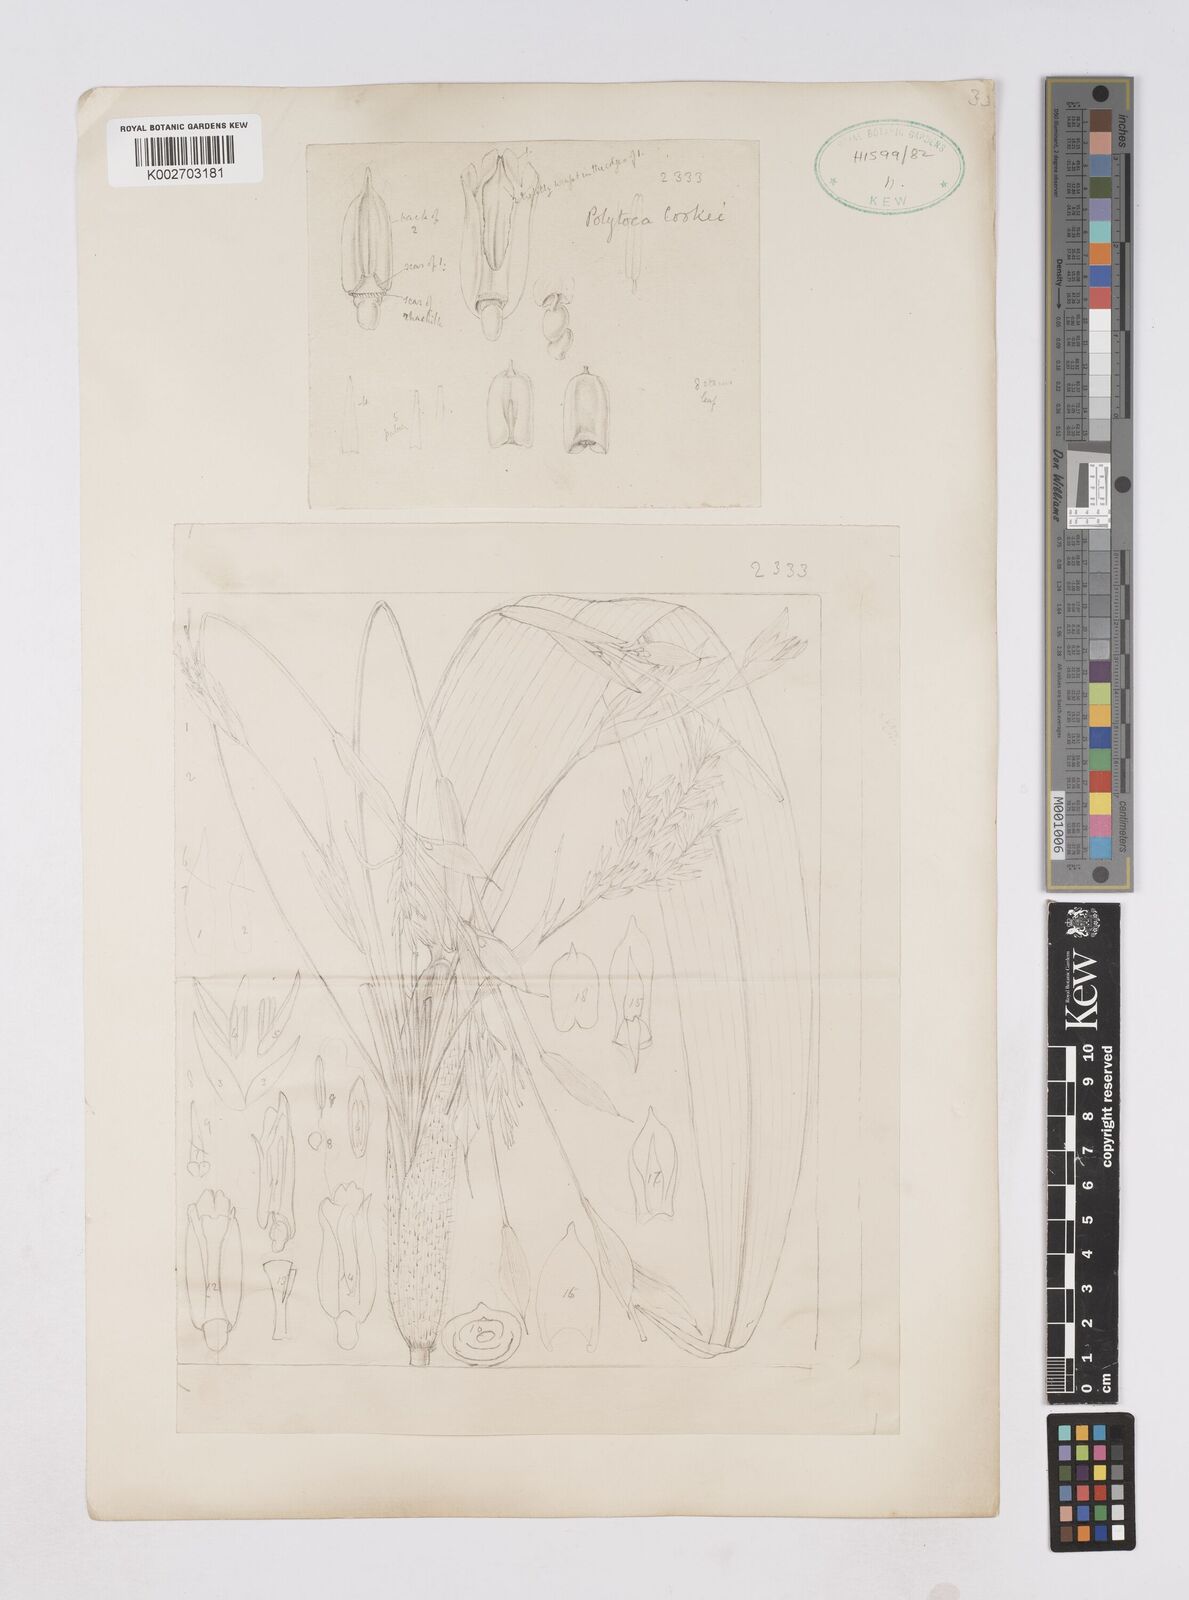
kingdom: Plantae
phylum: Tracheophyta
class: Liliopsida
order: Poales
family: Poaceae
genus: Trilobachne
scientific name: Trilobachne cookei
